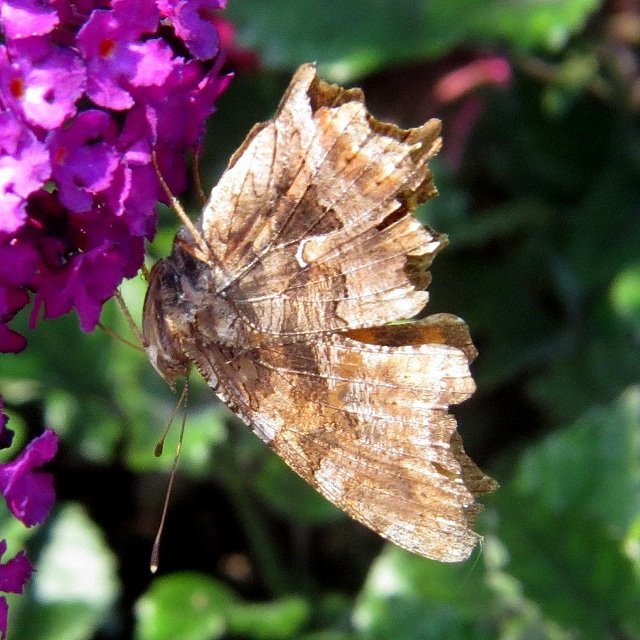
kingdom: Animalia
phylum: Arthropoda
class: Insecta
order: Lepidoptera
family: Nymphalidae
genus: Polygonia
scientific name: Polygonia comma
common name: Eastern Comma
